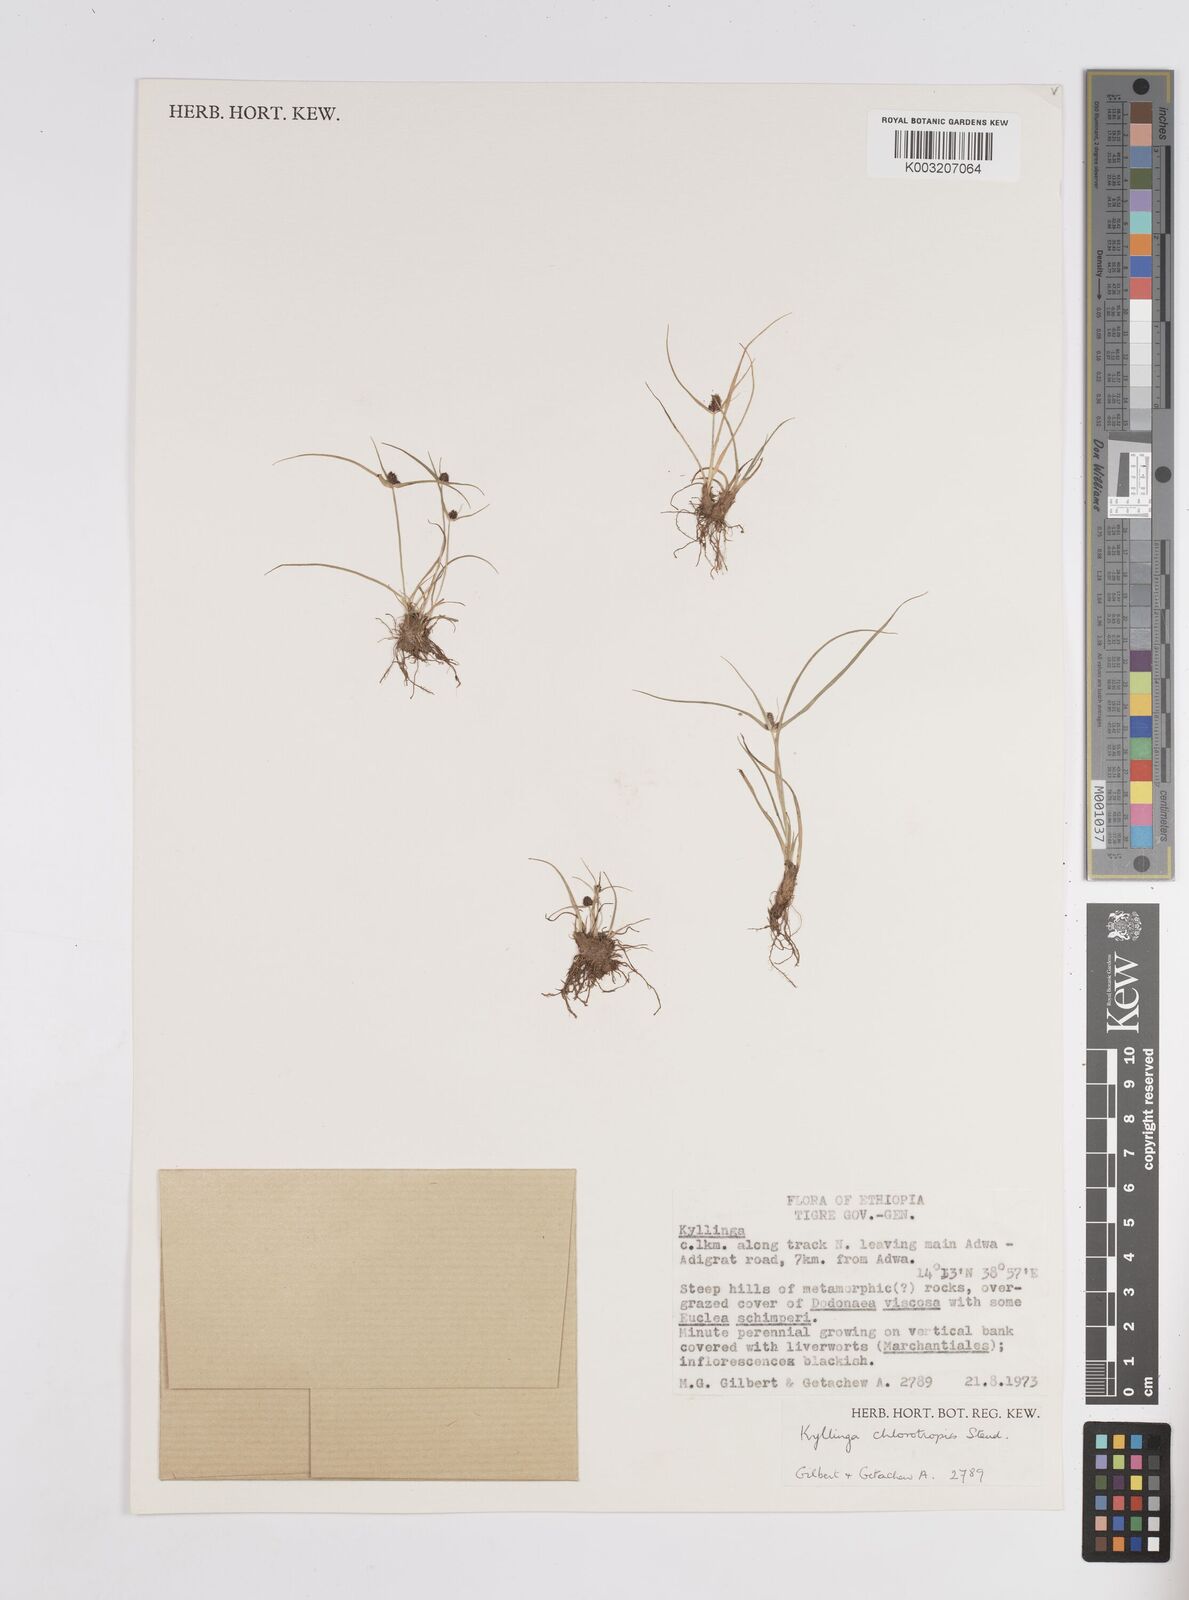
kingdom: Plantae
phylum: Tracheophyta
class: Liliopsida
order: Poales
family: Cyperaceae
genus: Cyperus
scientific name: Cyperus chlorotropis
